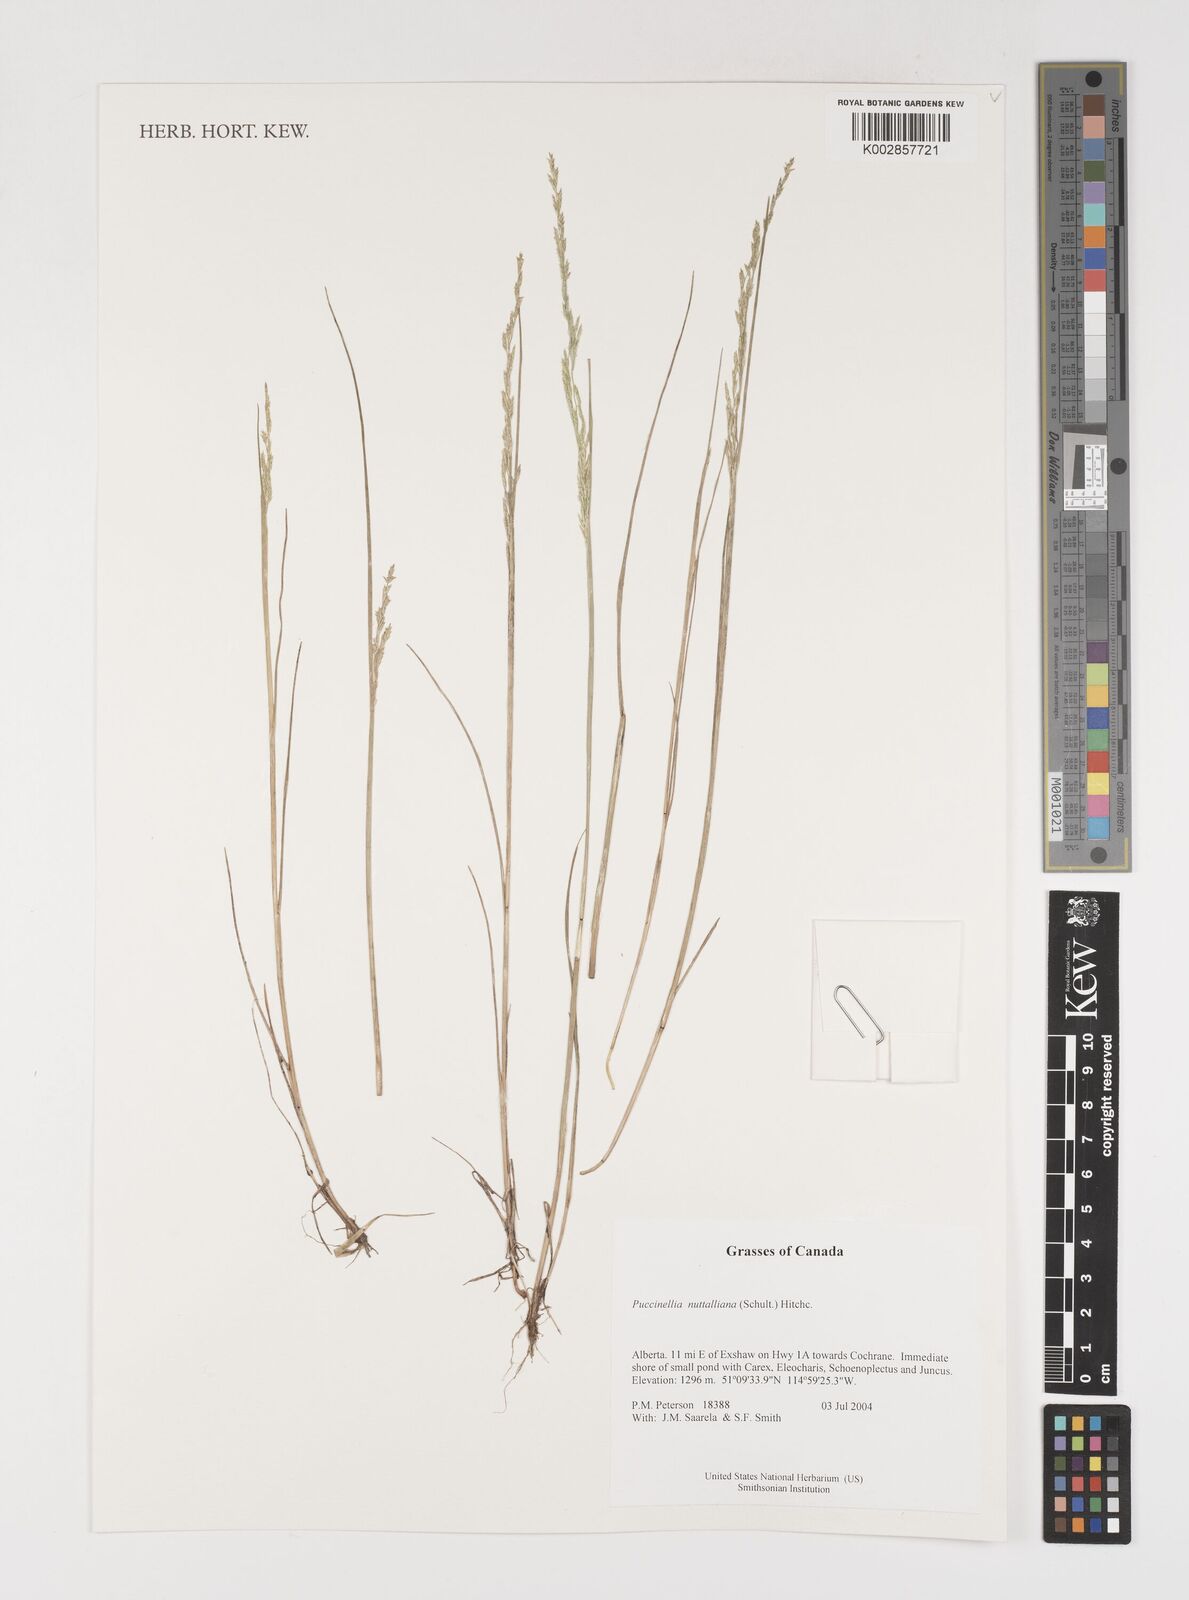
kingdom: Plantae
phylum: Tracheophyta
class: Liliopsida
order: Poales
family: Poaceae
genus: Puccinellia
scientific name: Puccinellia nuttalliana
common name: Nuttall's alkali grass
